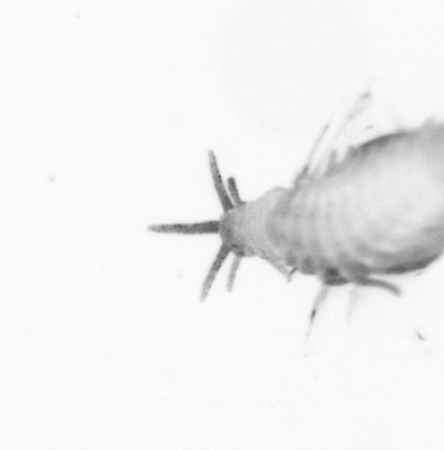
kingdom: Animalia
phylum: Annelida
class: Polychaeta
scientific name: Polychaeta
